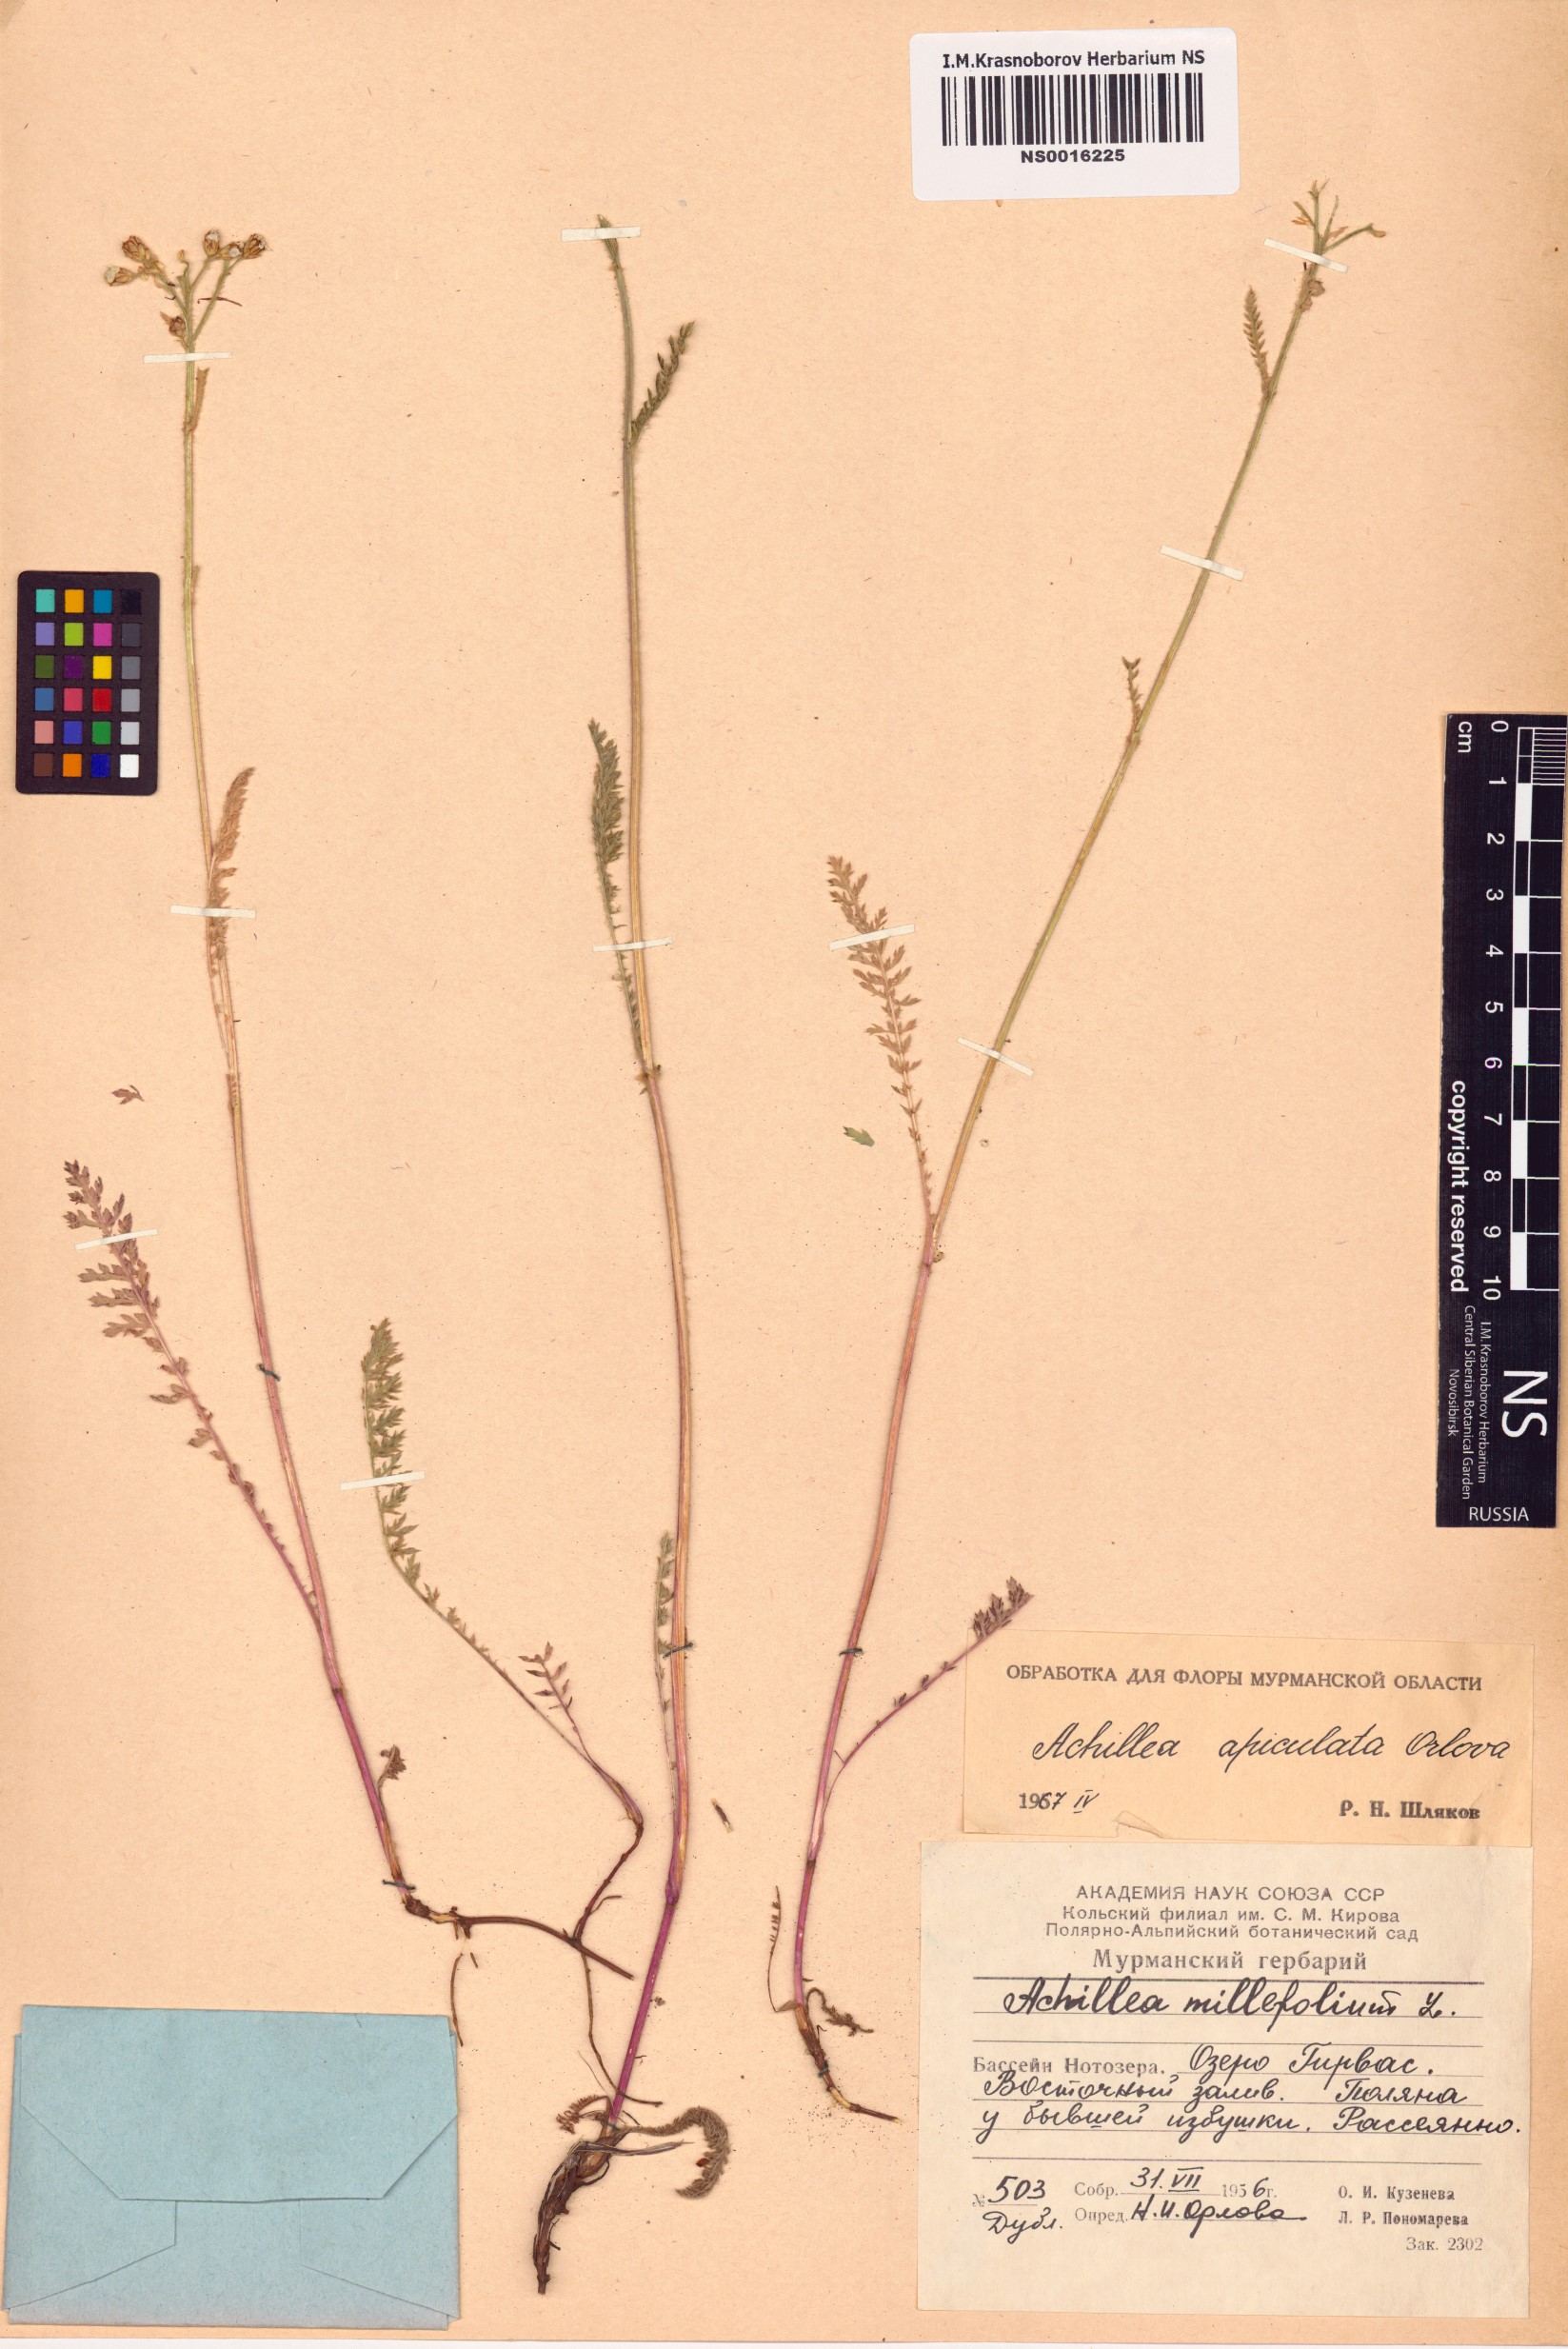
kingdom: Plantae
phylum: Tracheophyta
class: Magnoliopsida
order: Asterales
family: Asteraceae
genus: Achillea
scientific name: Achillea apiculata
